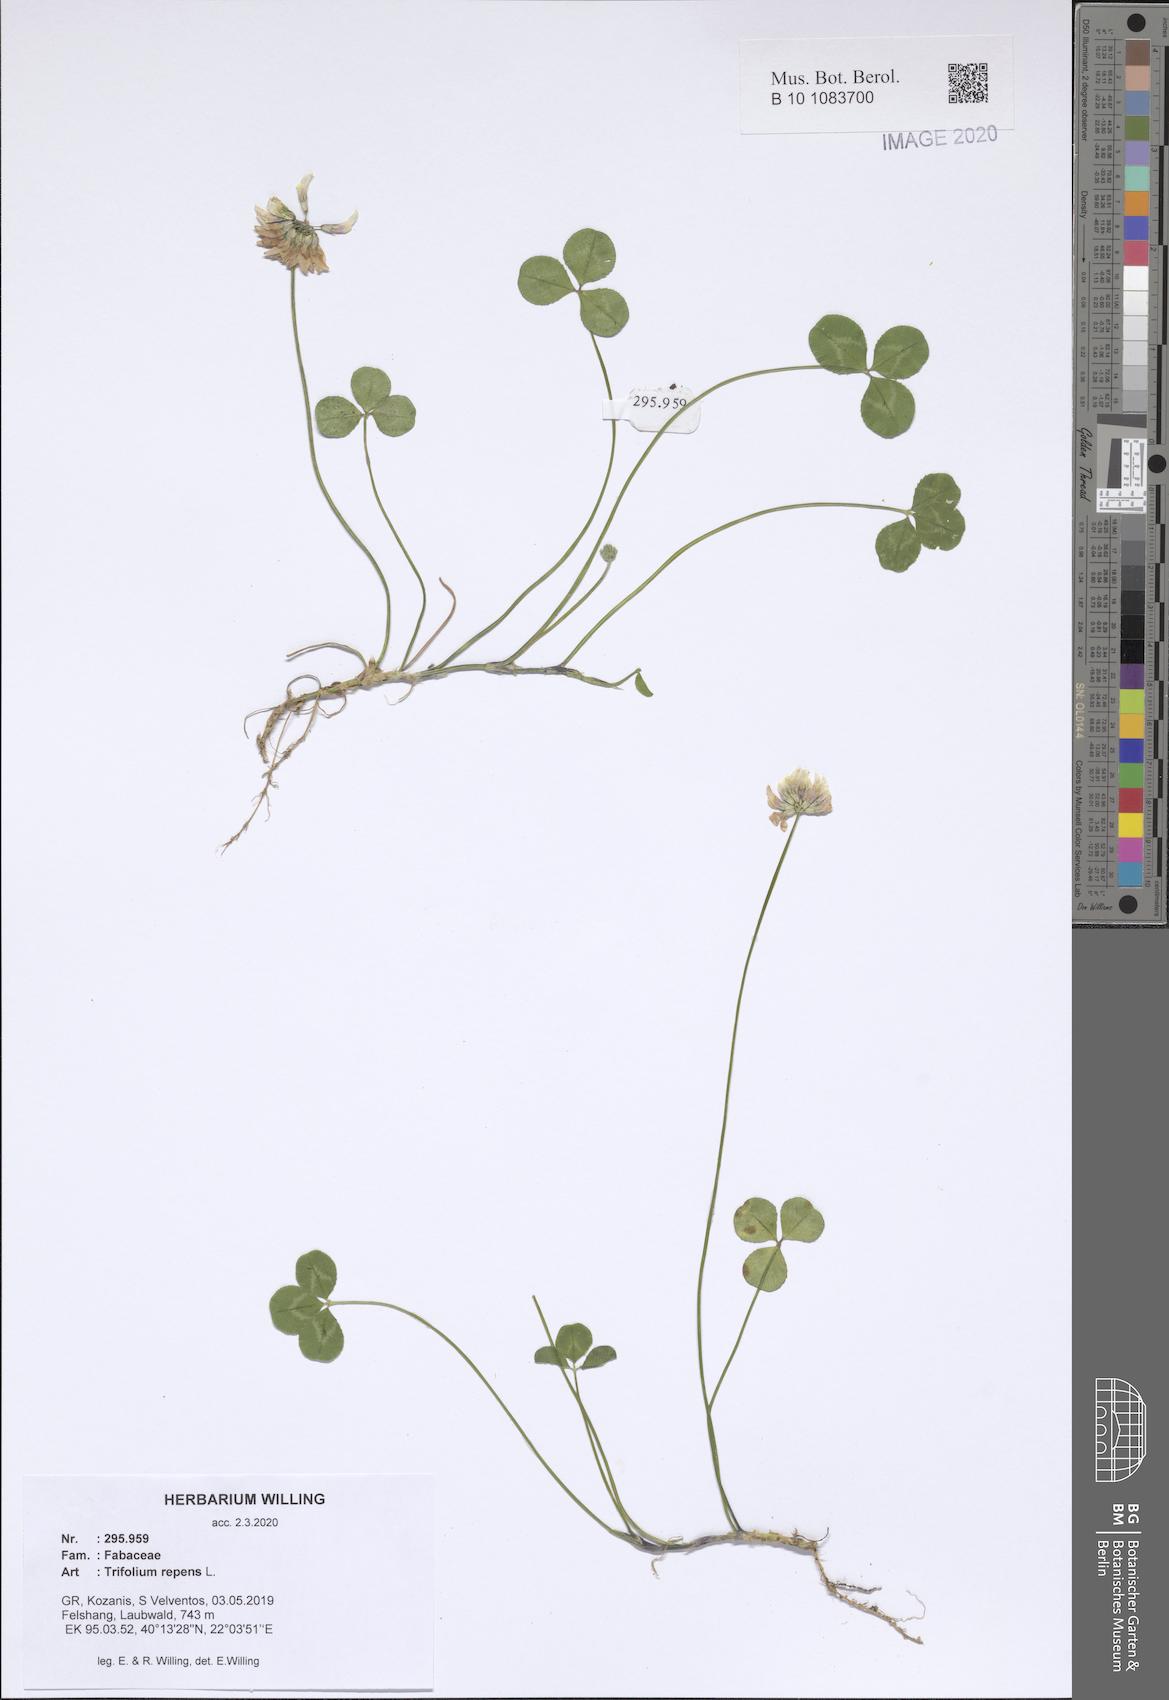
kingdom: Plantae
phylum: Tracheophyta
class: Magnoliopsida
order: Fabales
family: Fabaceae
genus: Trifolium
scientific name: Trifolium repens
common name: White clover
